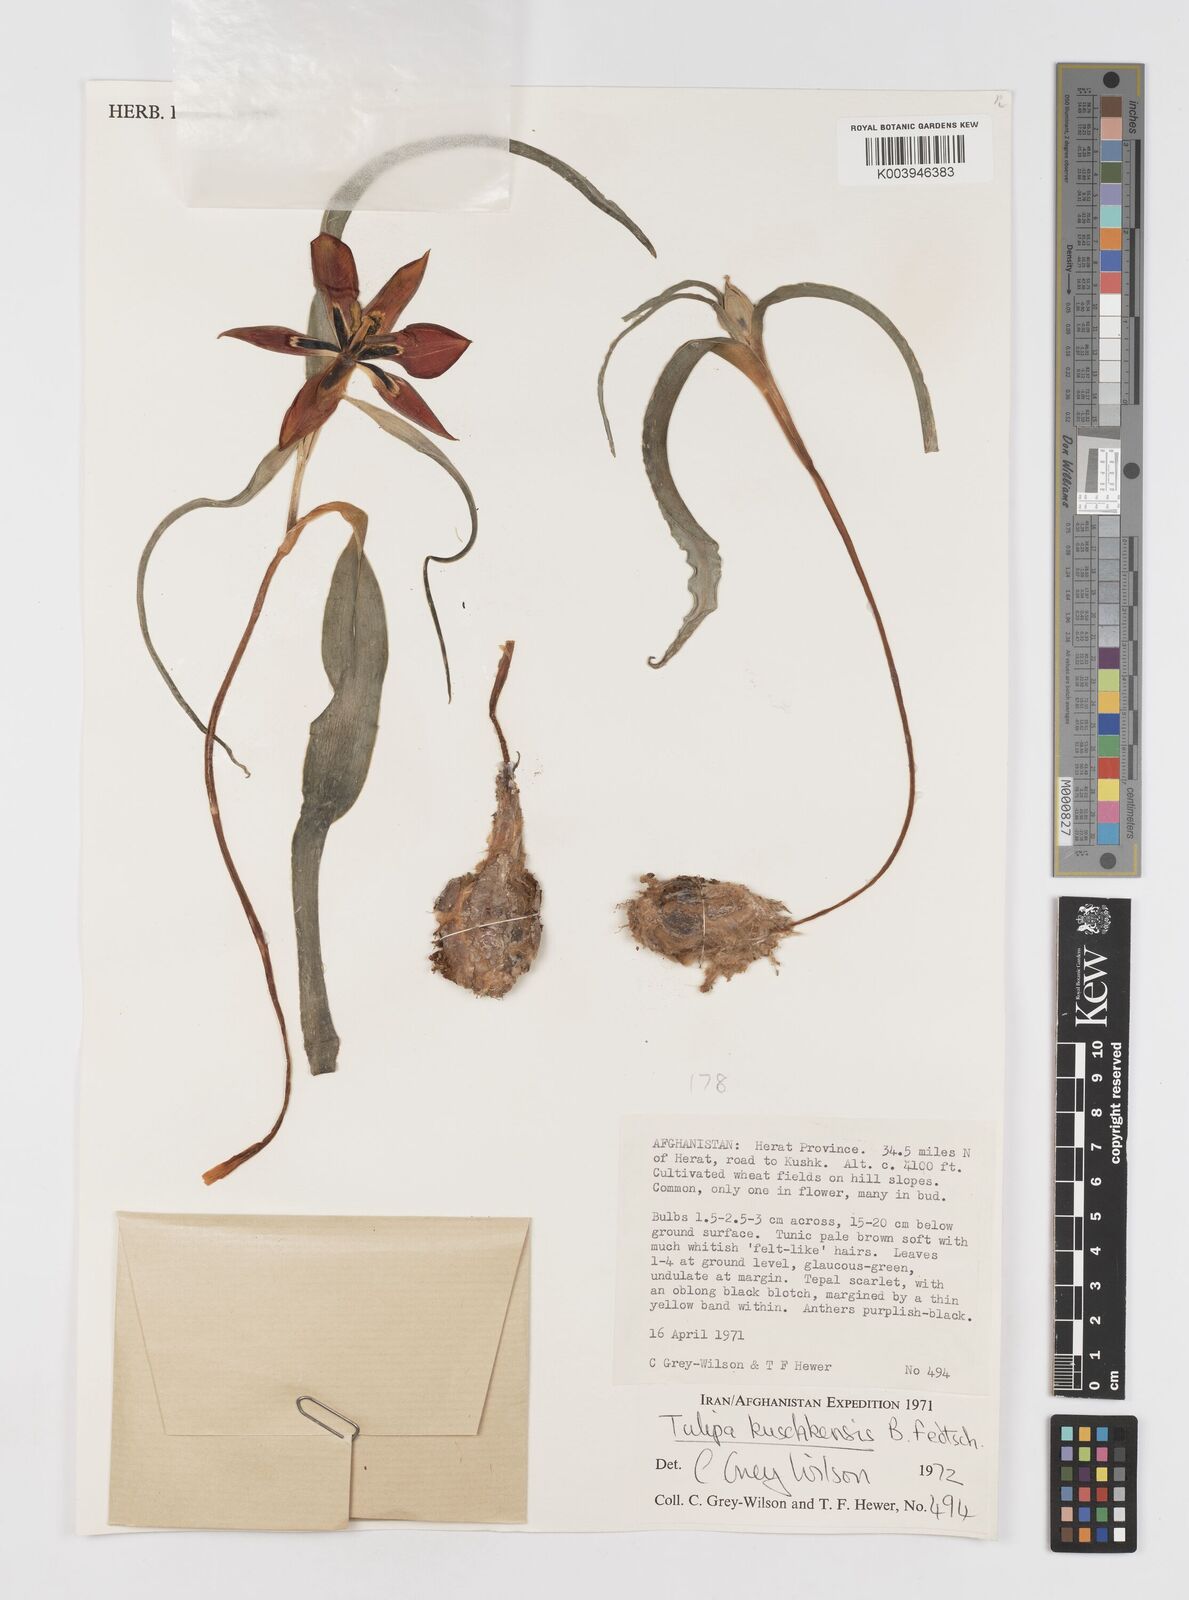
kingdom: Plantae
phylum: Tracheophyta
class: Liliopsida
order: Liliales
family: Liliaceae
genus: Tulipa
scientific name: Tulipa kuschkensis
